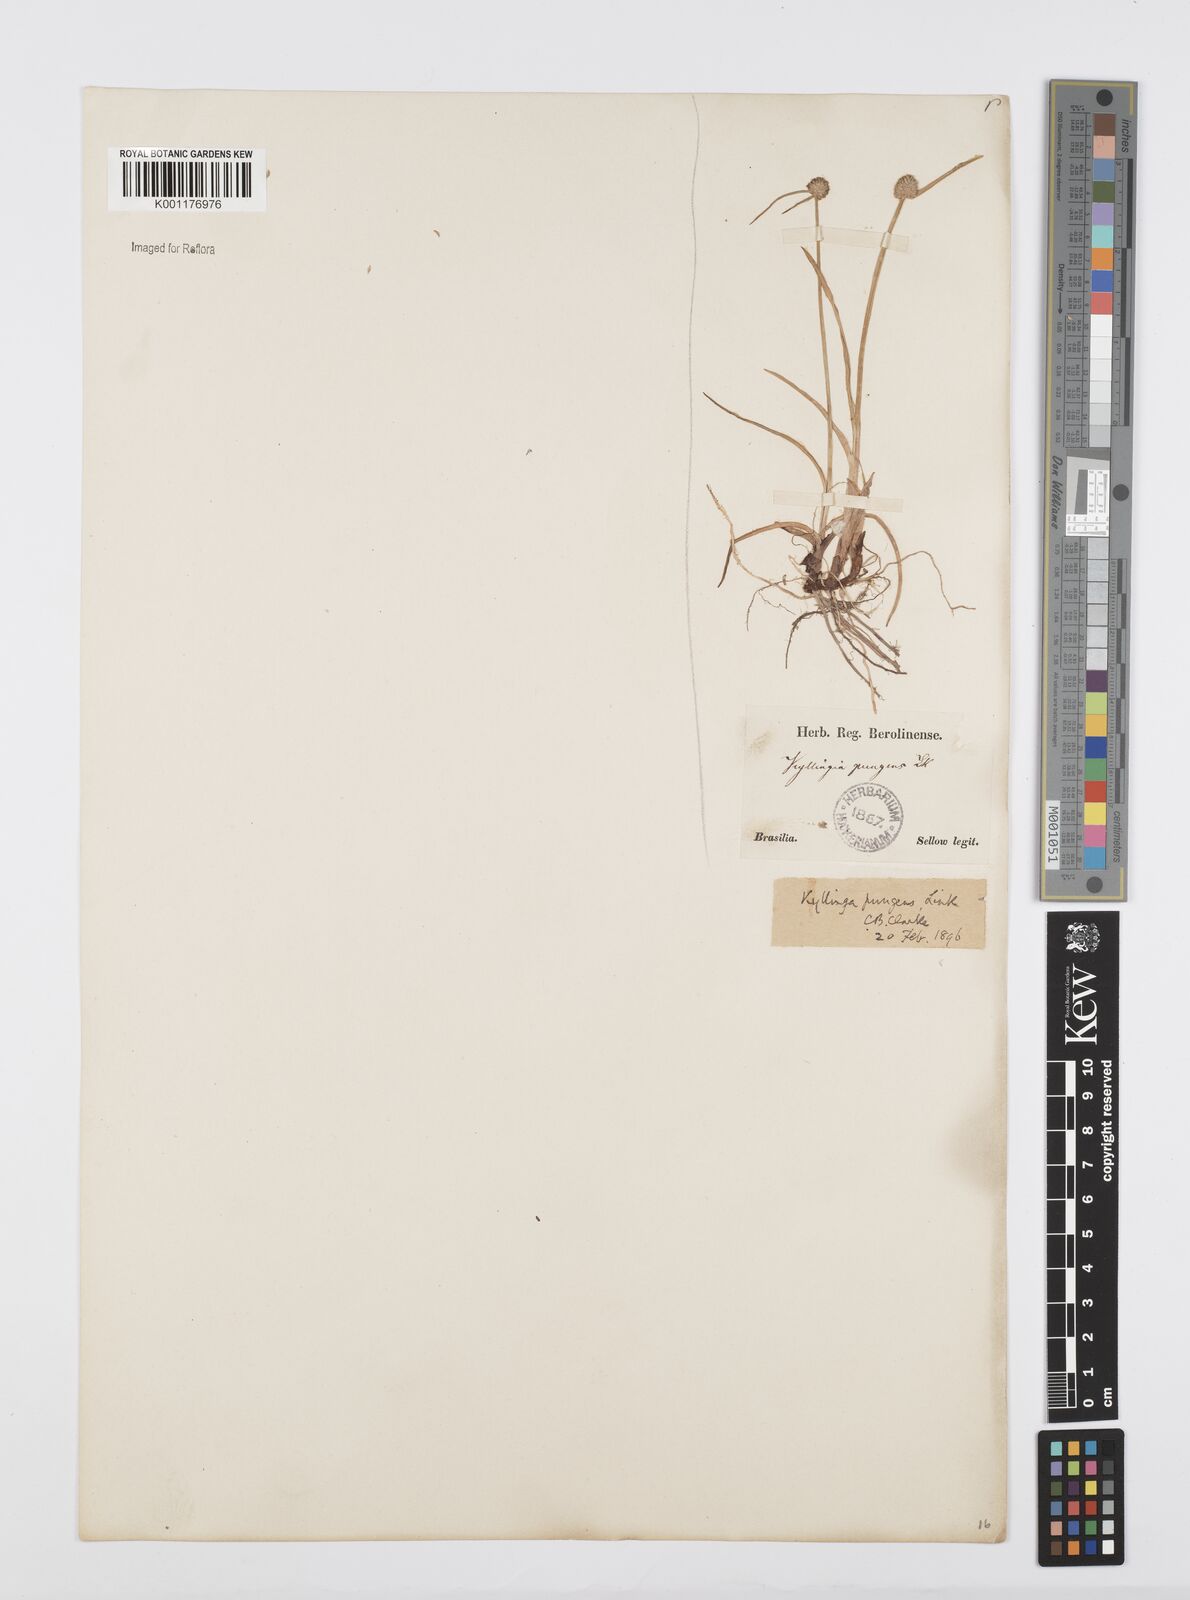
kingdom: Plantae
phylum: Tracheophyta
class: Liliopsida
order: Poales
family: Cyperaceae
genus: Cyperus
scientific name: Cyperus obtusatus
